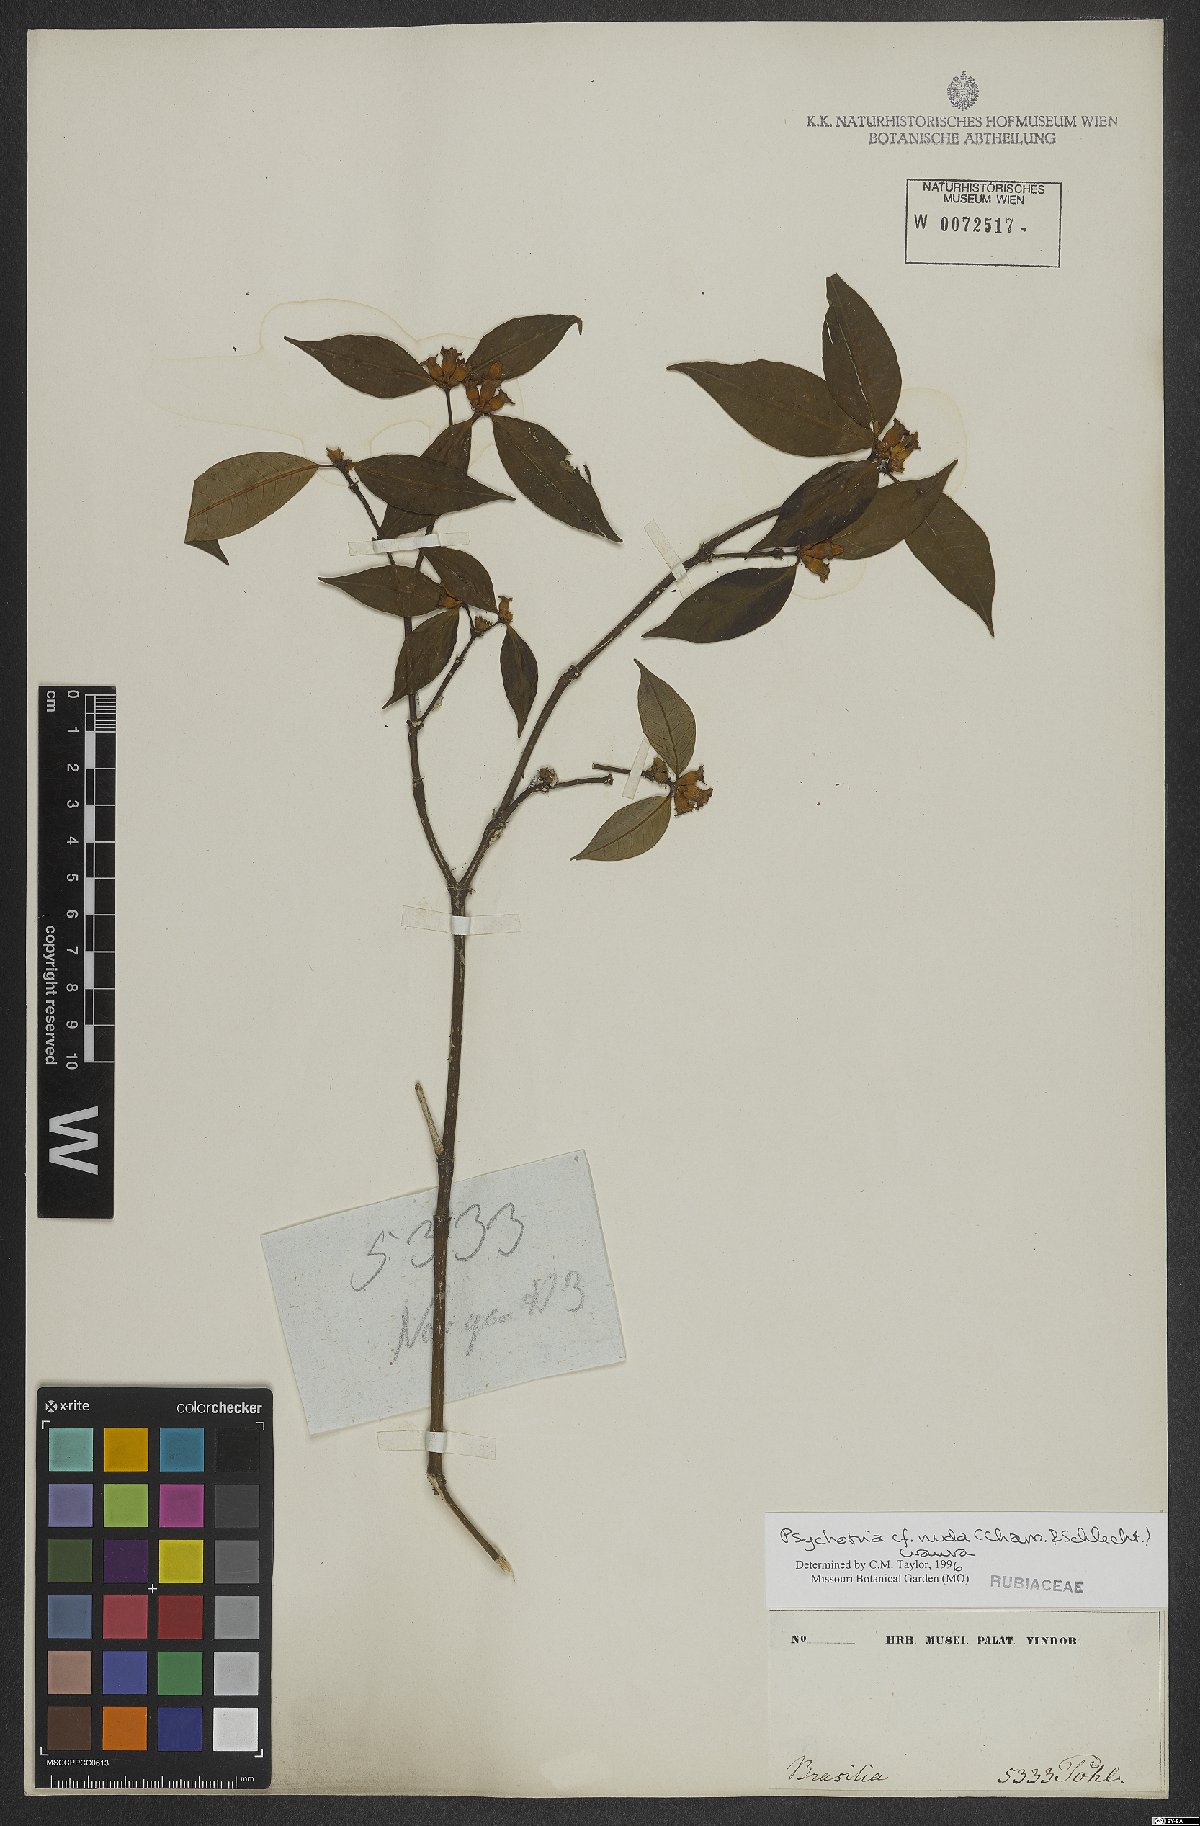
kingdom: Plantae
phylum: Tracheophyta
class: Magnoliopsida
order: Gentianales
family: Rubiaceae
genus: Psychotria
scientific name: Psychotria nuda
